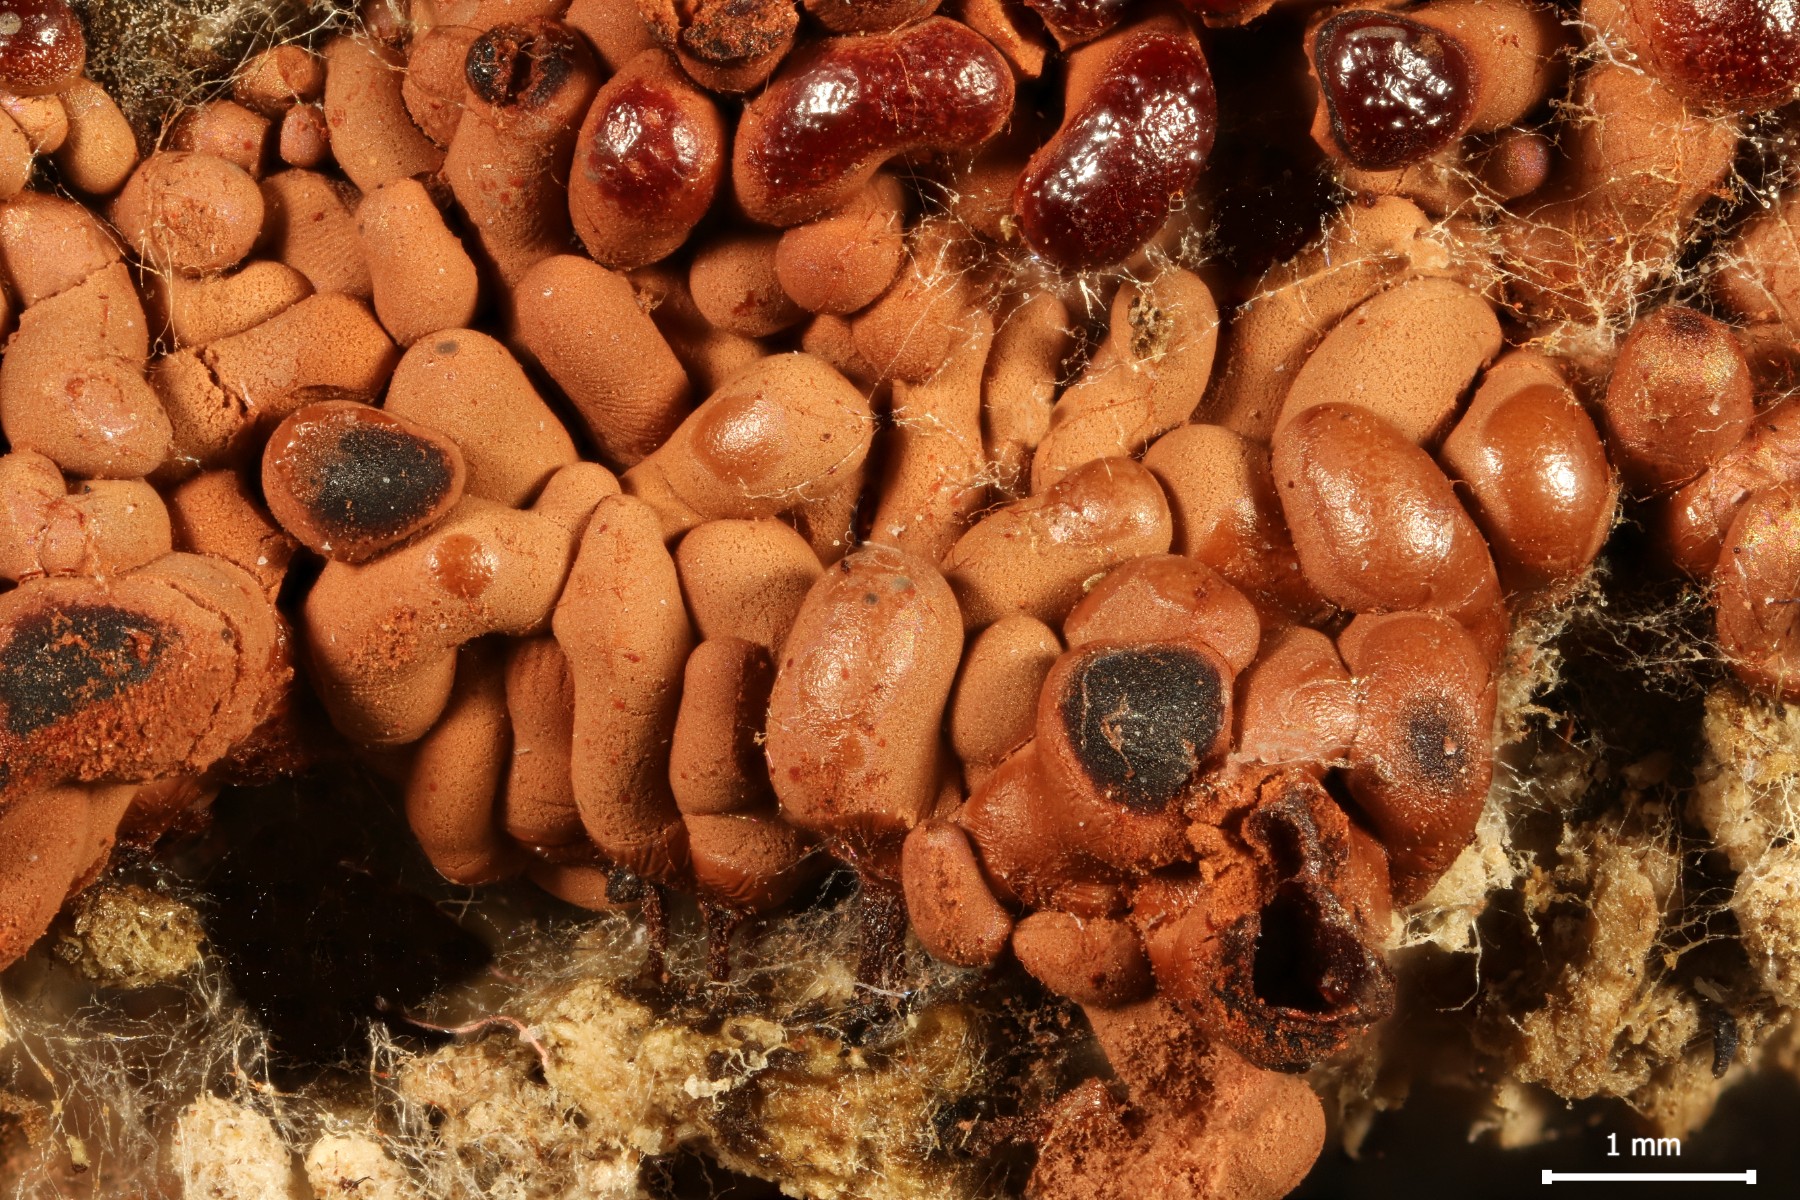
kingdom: Protozoa
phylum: Mycetozoa
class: Myxomycetes
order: Trichiales
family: Arcyriaceae
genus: Arcyria
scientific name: Arcyria stipata
